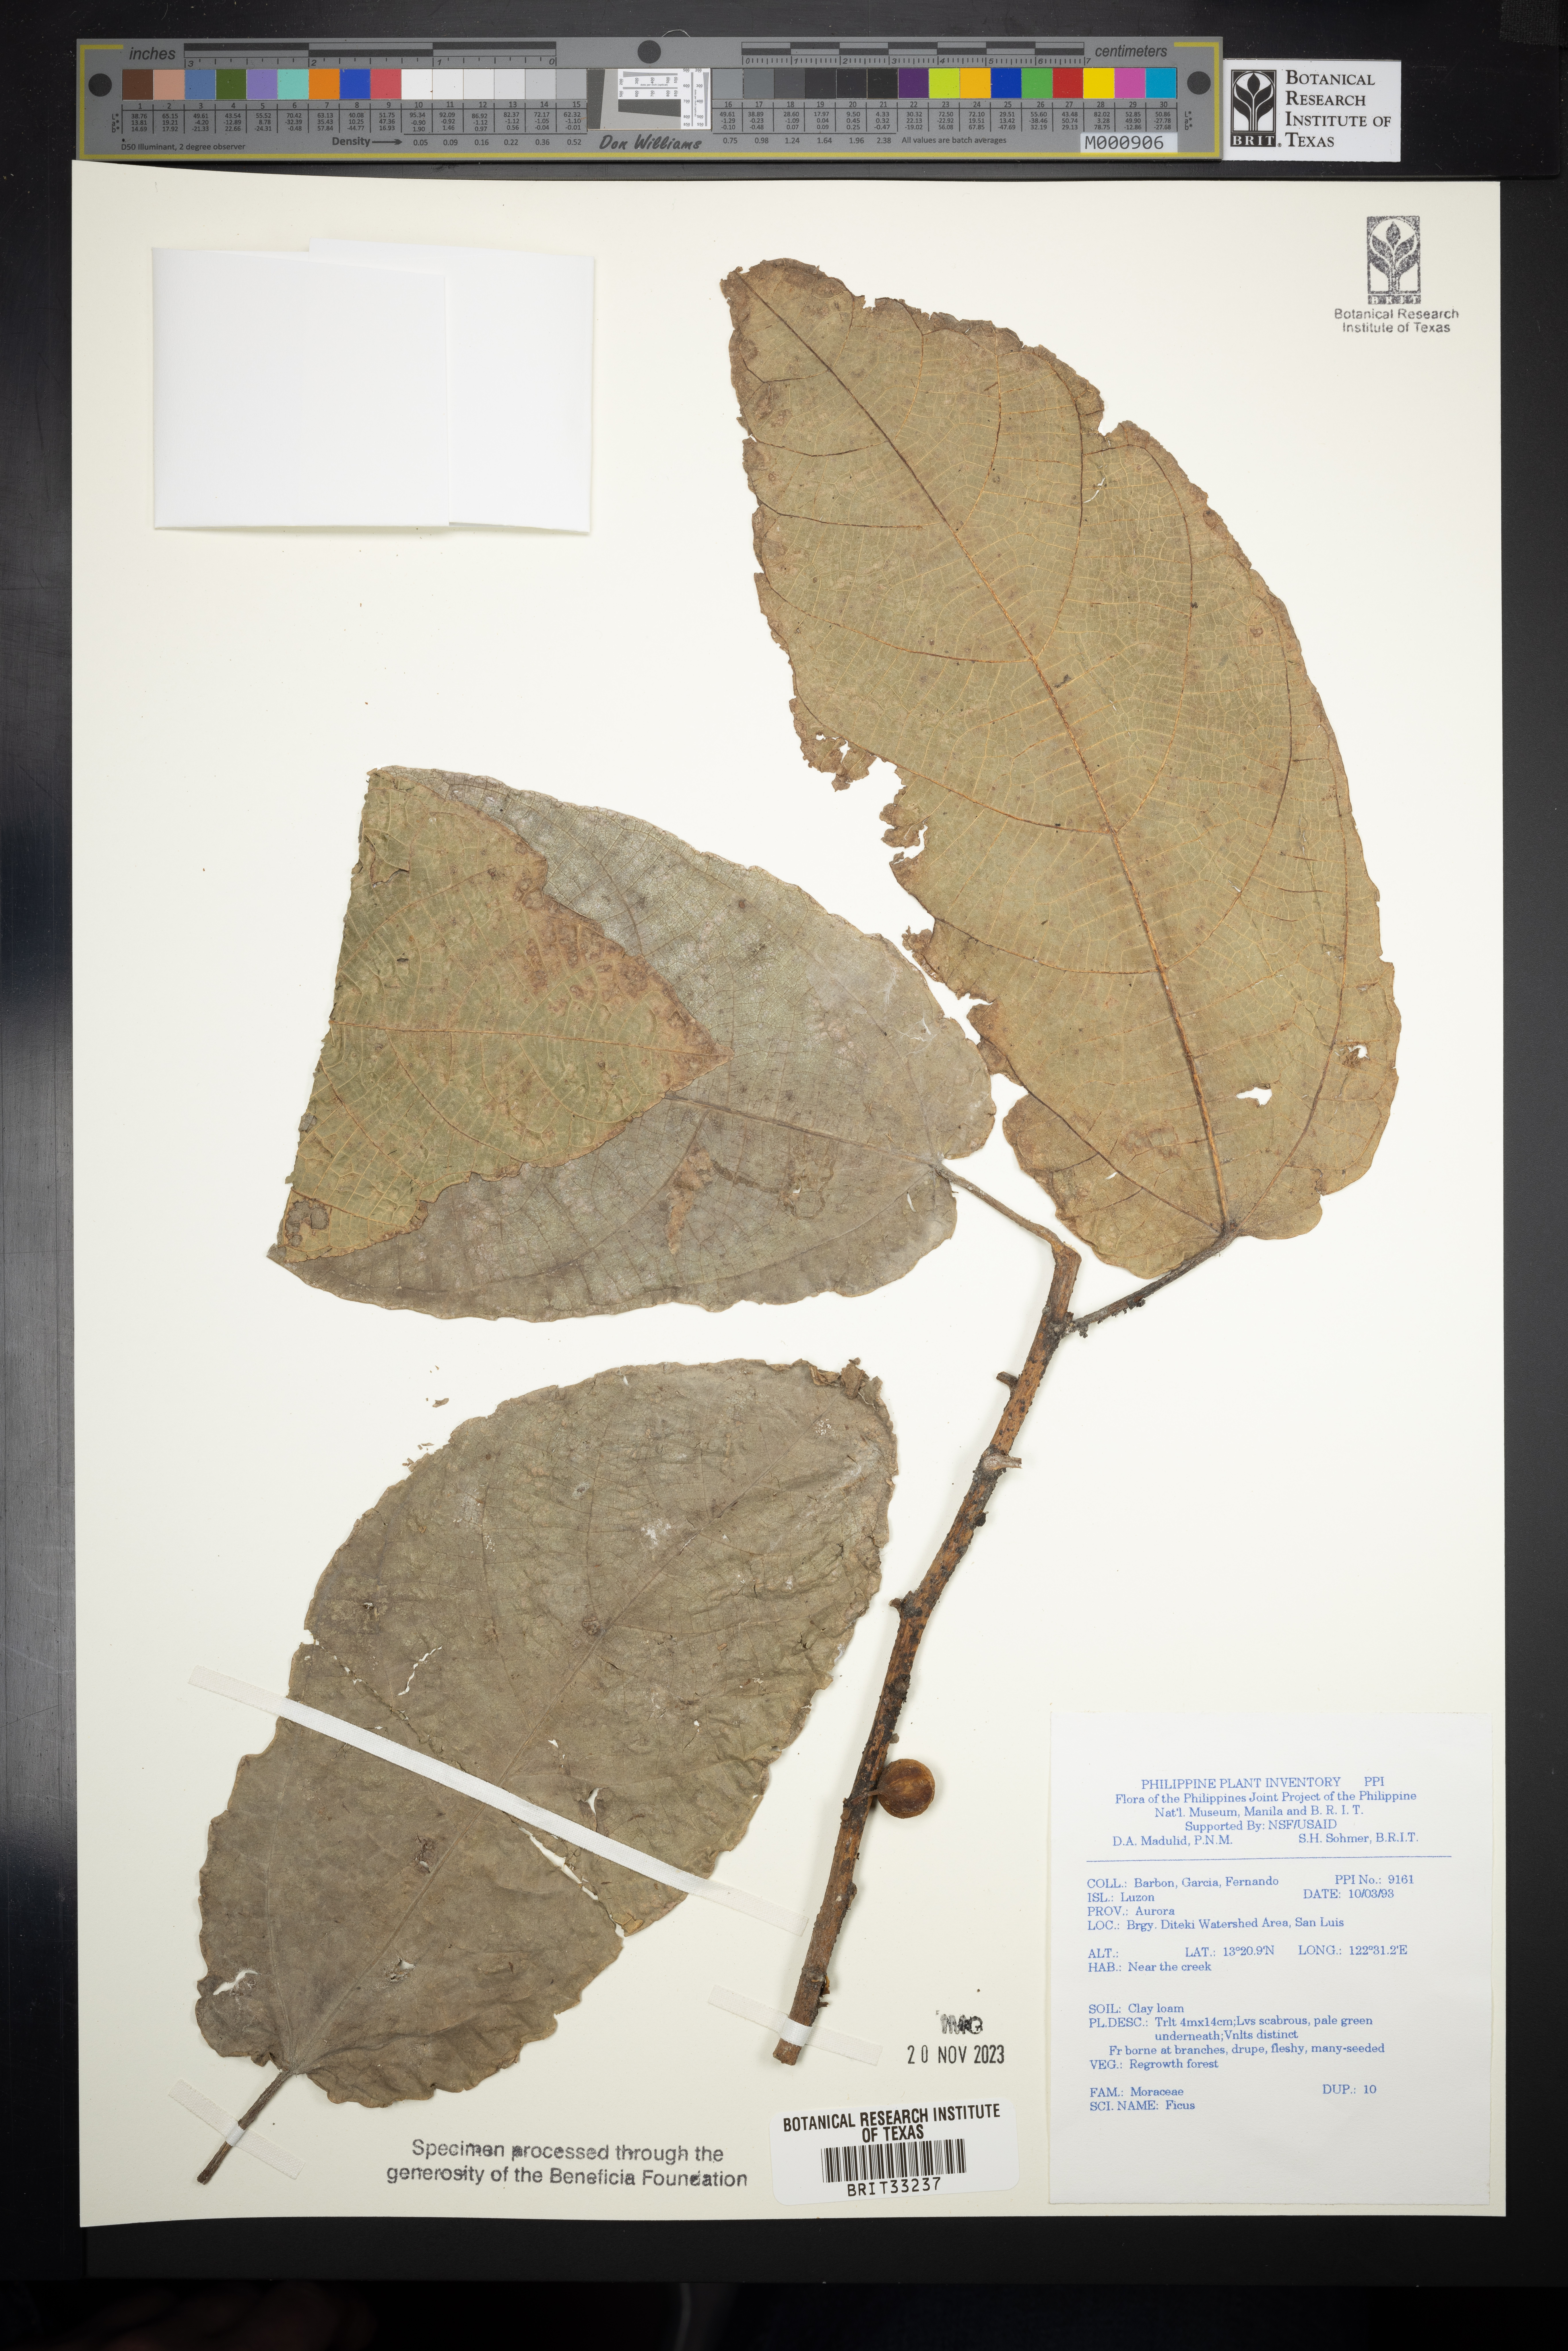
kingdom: Plantae
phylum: Tracheophyta
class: Magnoliopsida
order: Rosales
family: Moraceae
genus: Ficus
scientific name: Ficus
